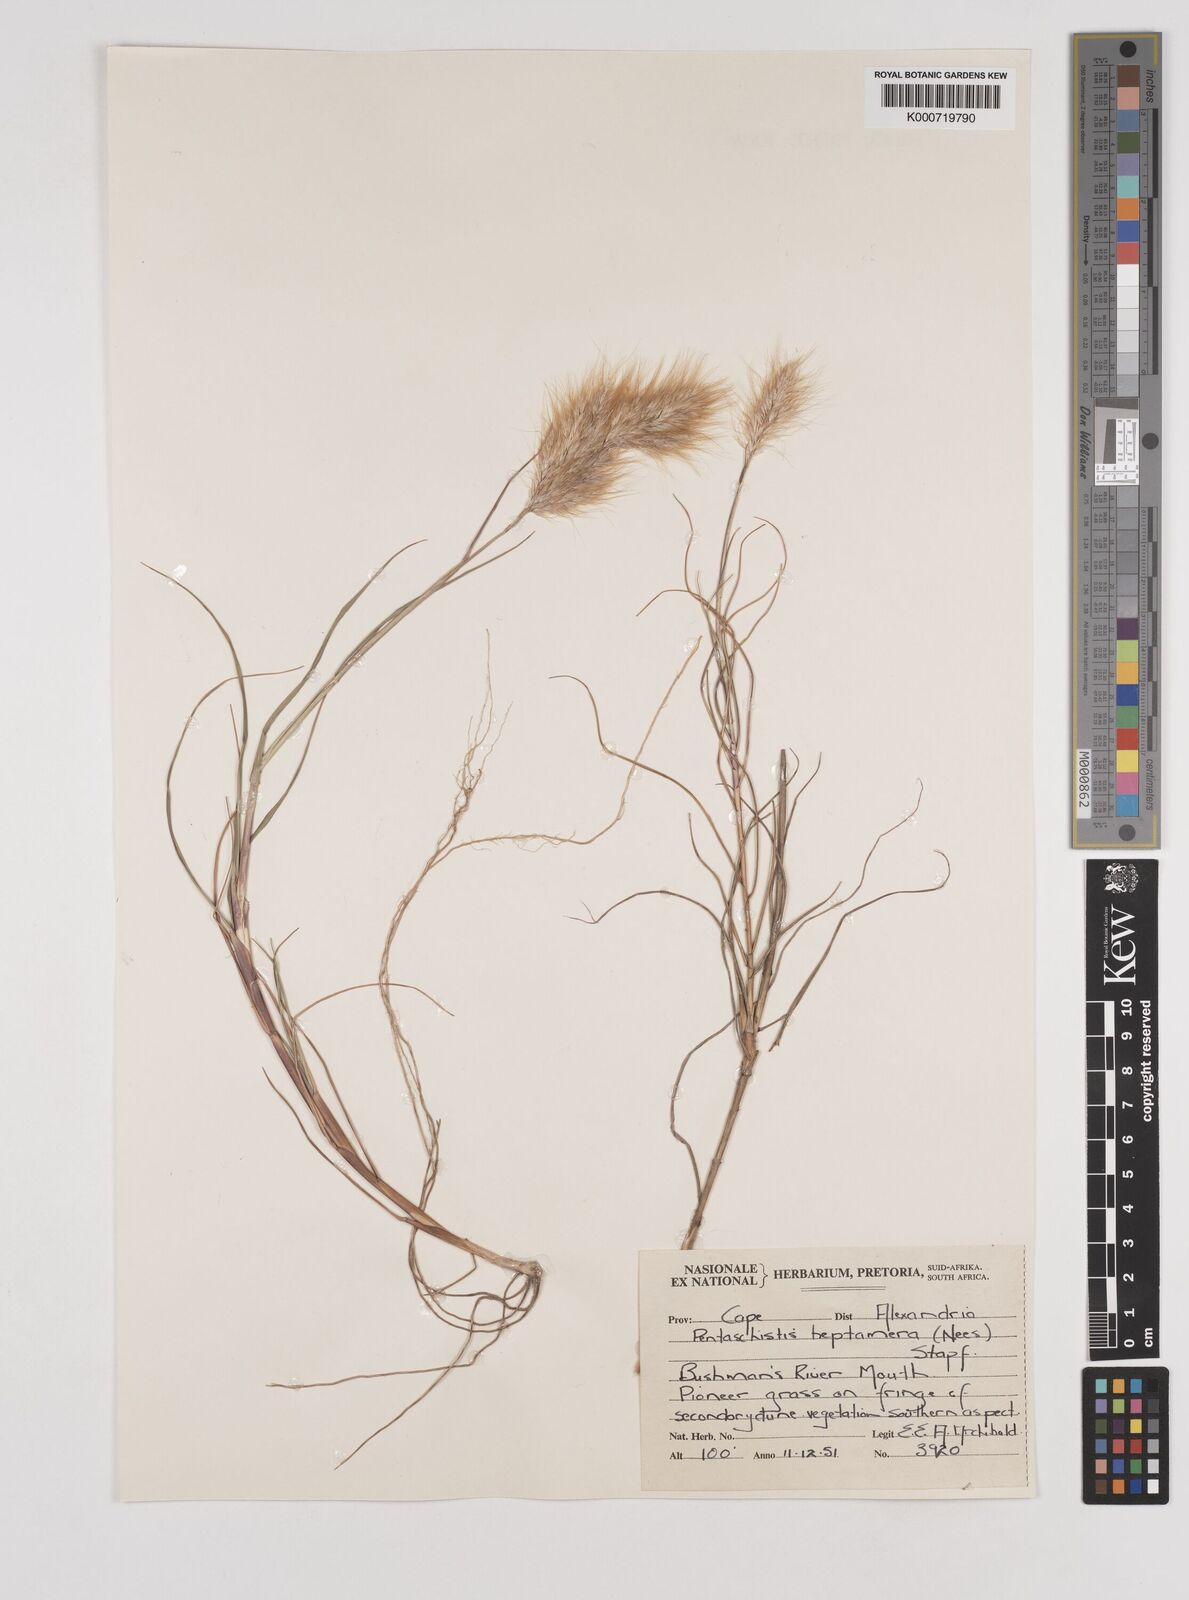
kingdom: Plantae
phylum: Tracheophyta
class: Liliopsida
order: Poales
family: Poaceae
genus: Pentameris
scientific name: Pentameris heptamera
